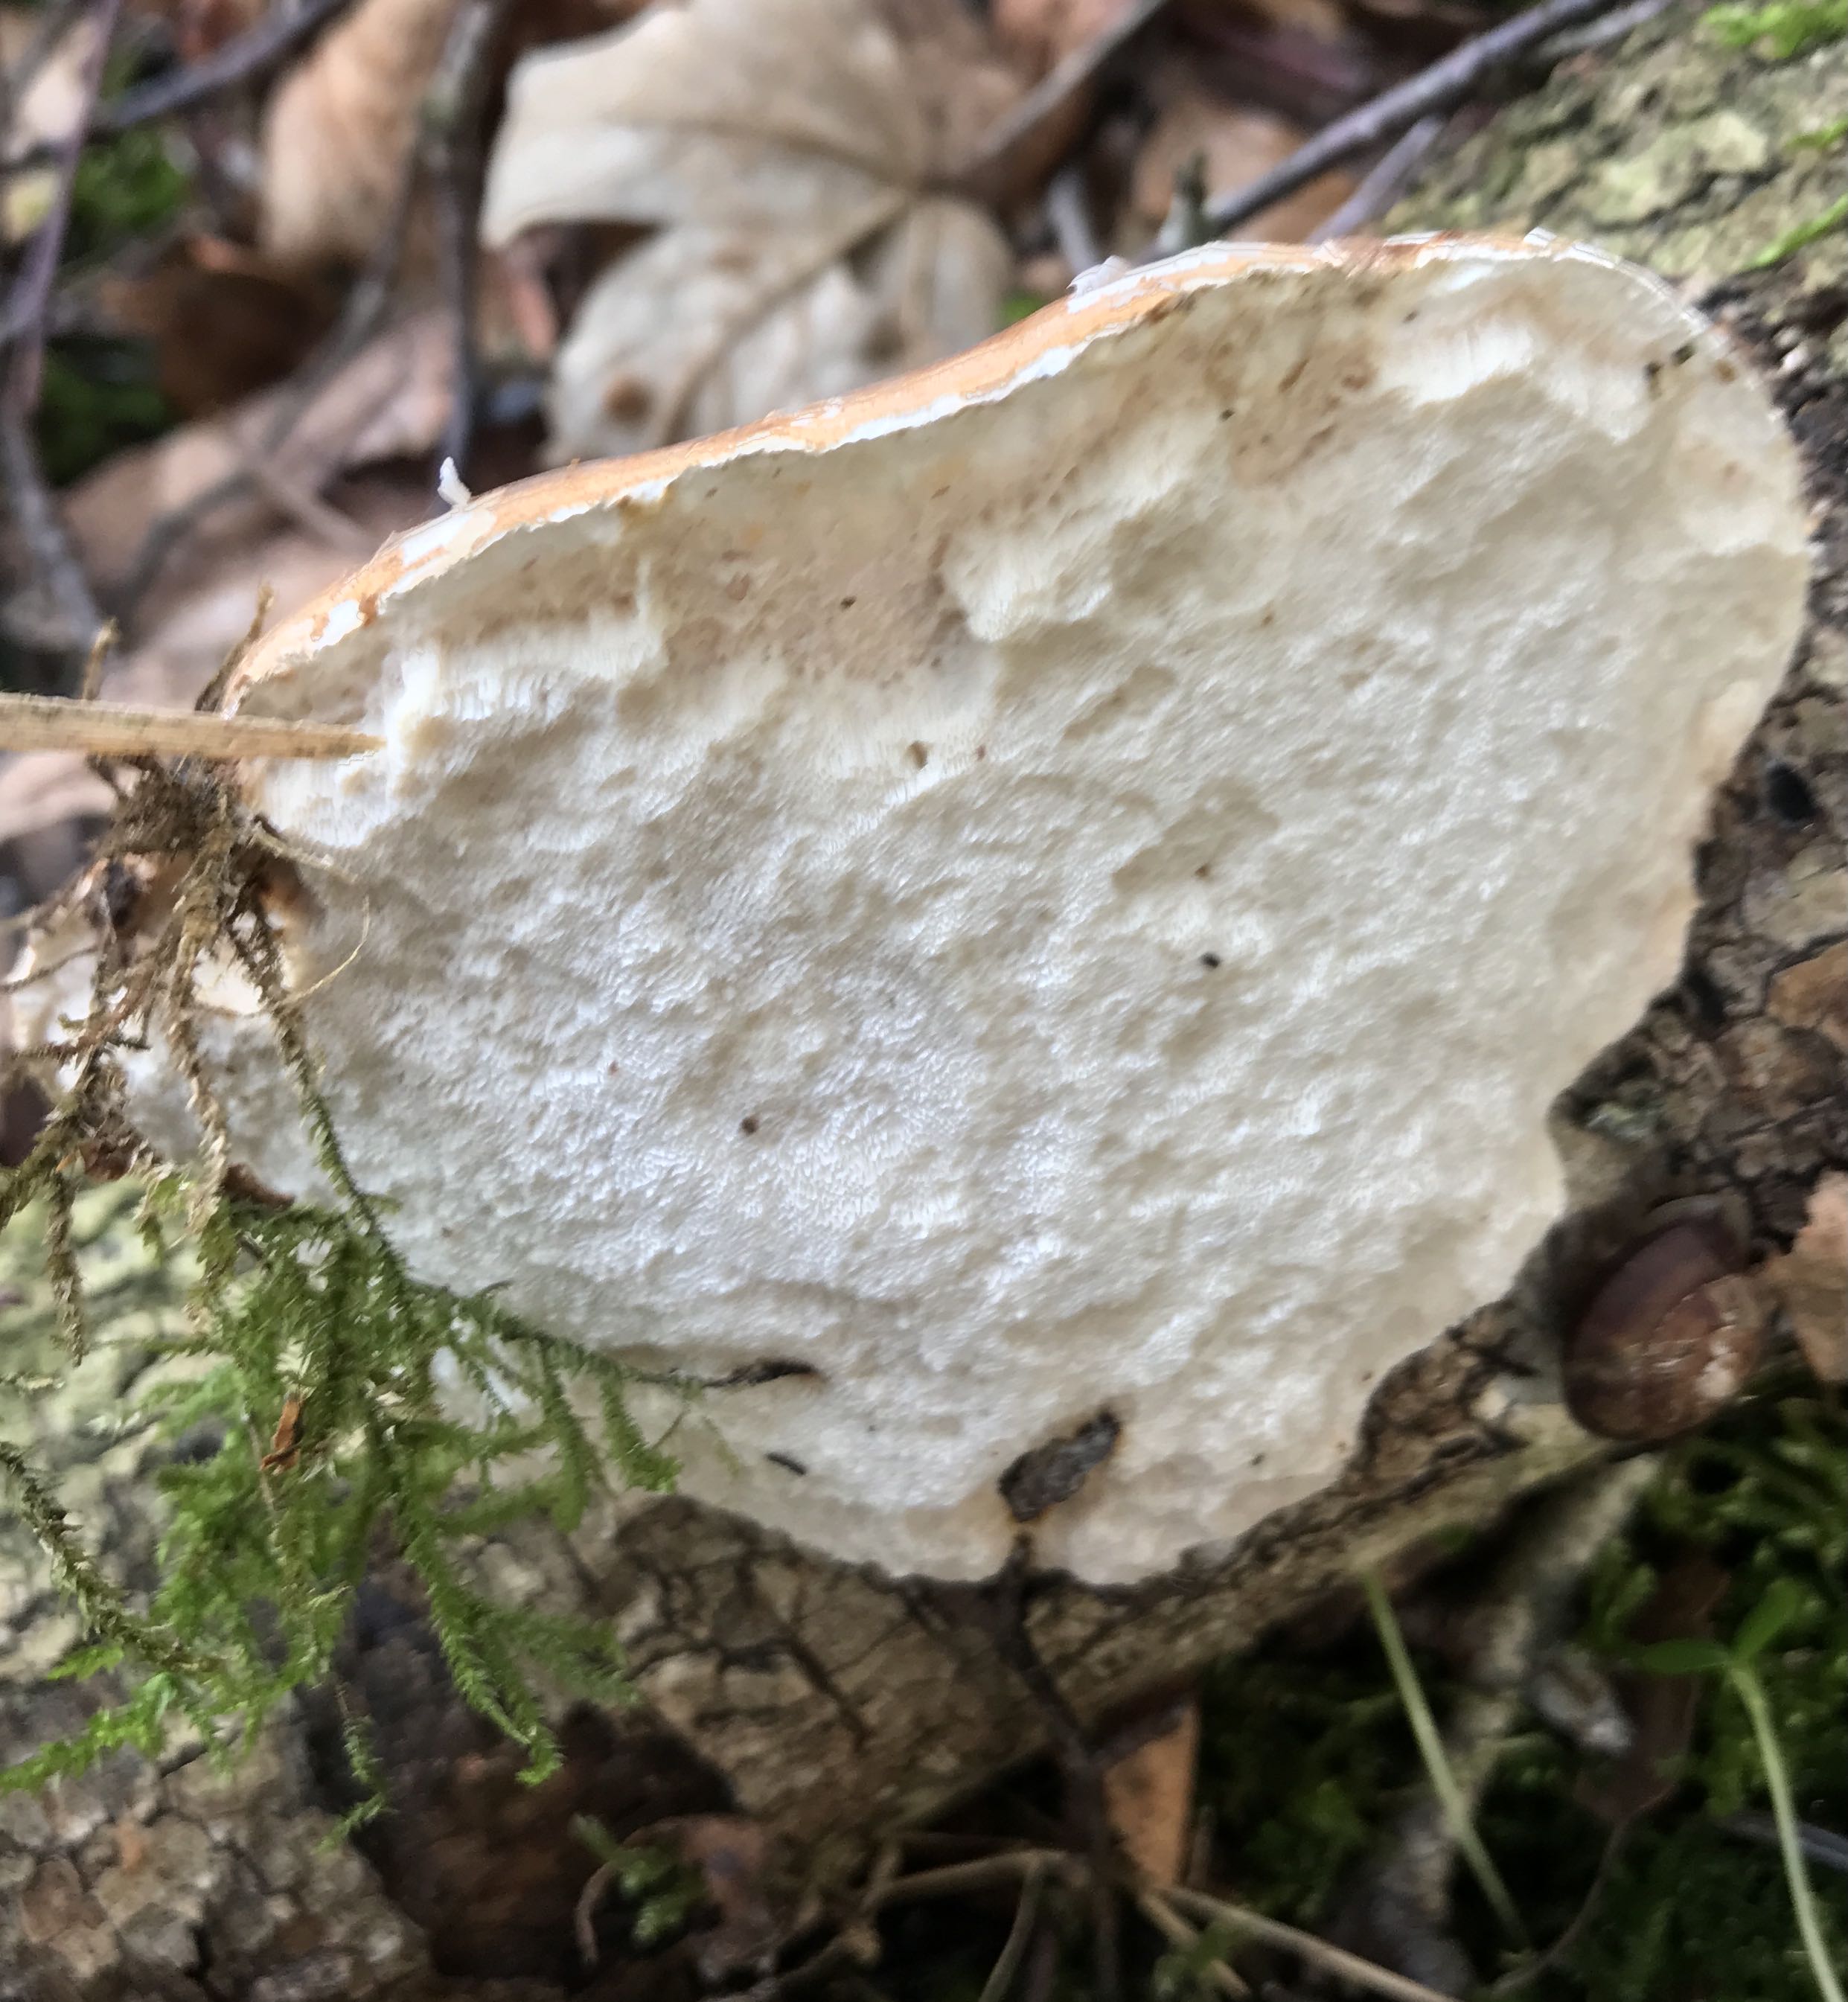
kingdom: Fungi
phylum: Basidiomycota
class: Agaricomycetes
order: Polyporales
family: Fomitopsidaceae
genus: Fomitopsis
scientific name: Fomitopsis betulina
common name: birkeporesvamp
